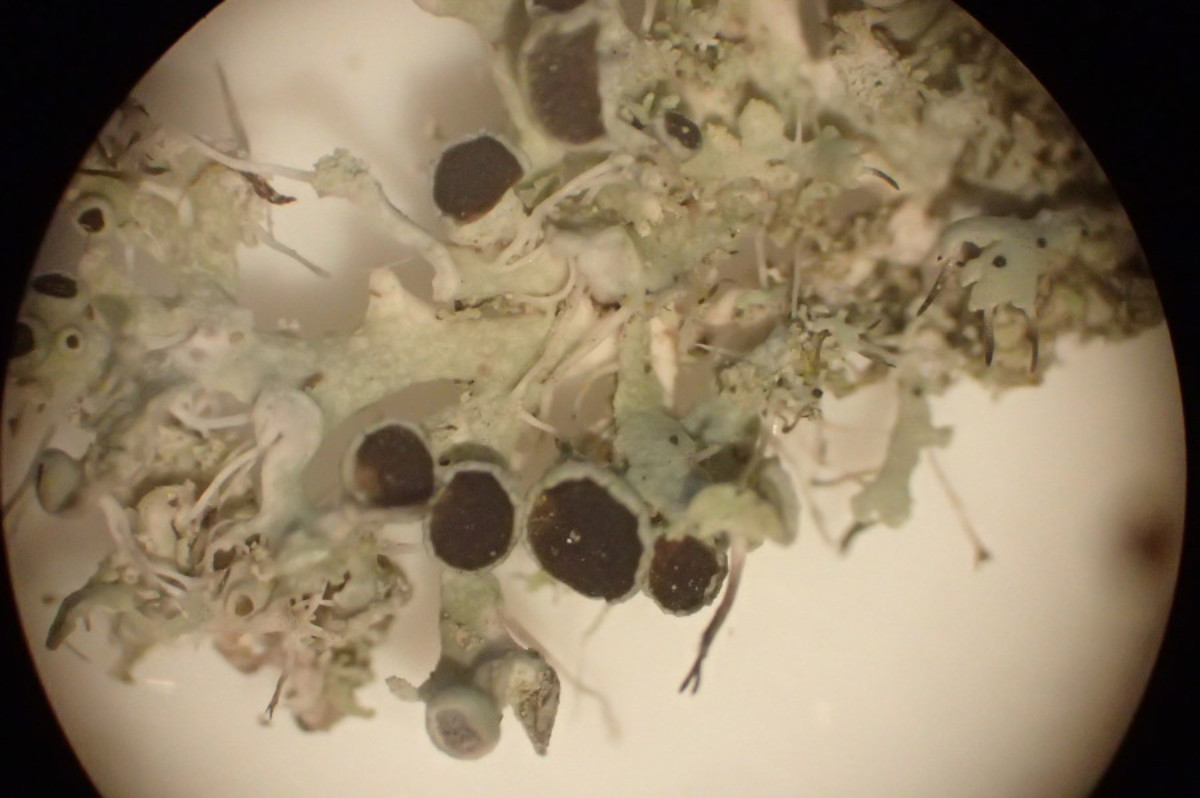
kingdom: Fungi
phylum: Ascomycota
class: Lecanoromycetes
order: Caliciales
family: Physciaceae
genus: Physcia
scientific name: Physcia tenella
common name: spæd rosetlav
